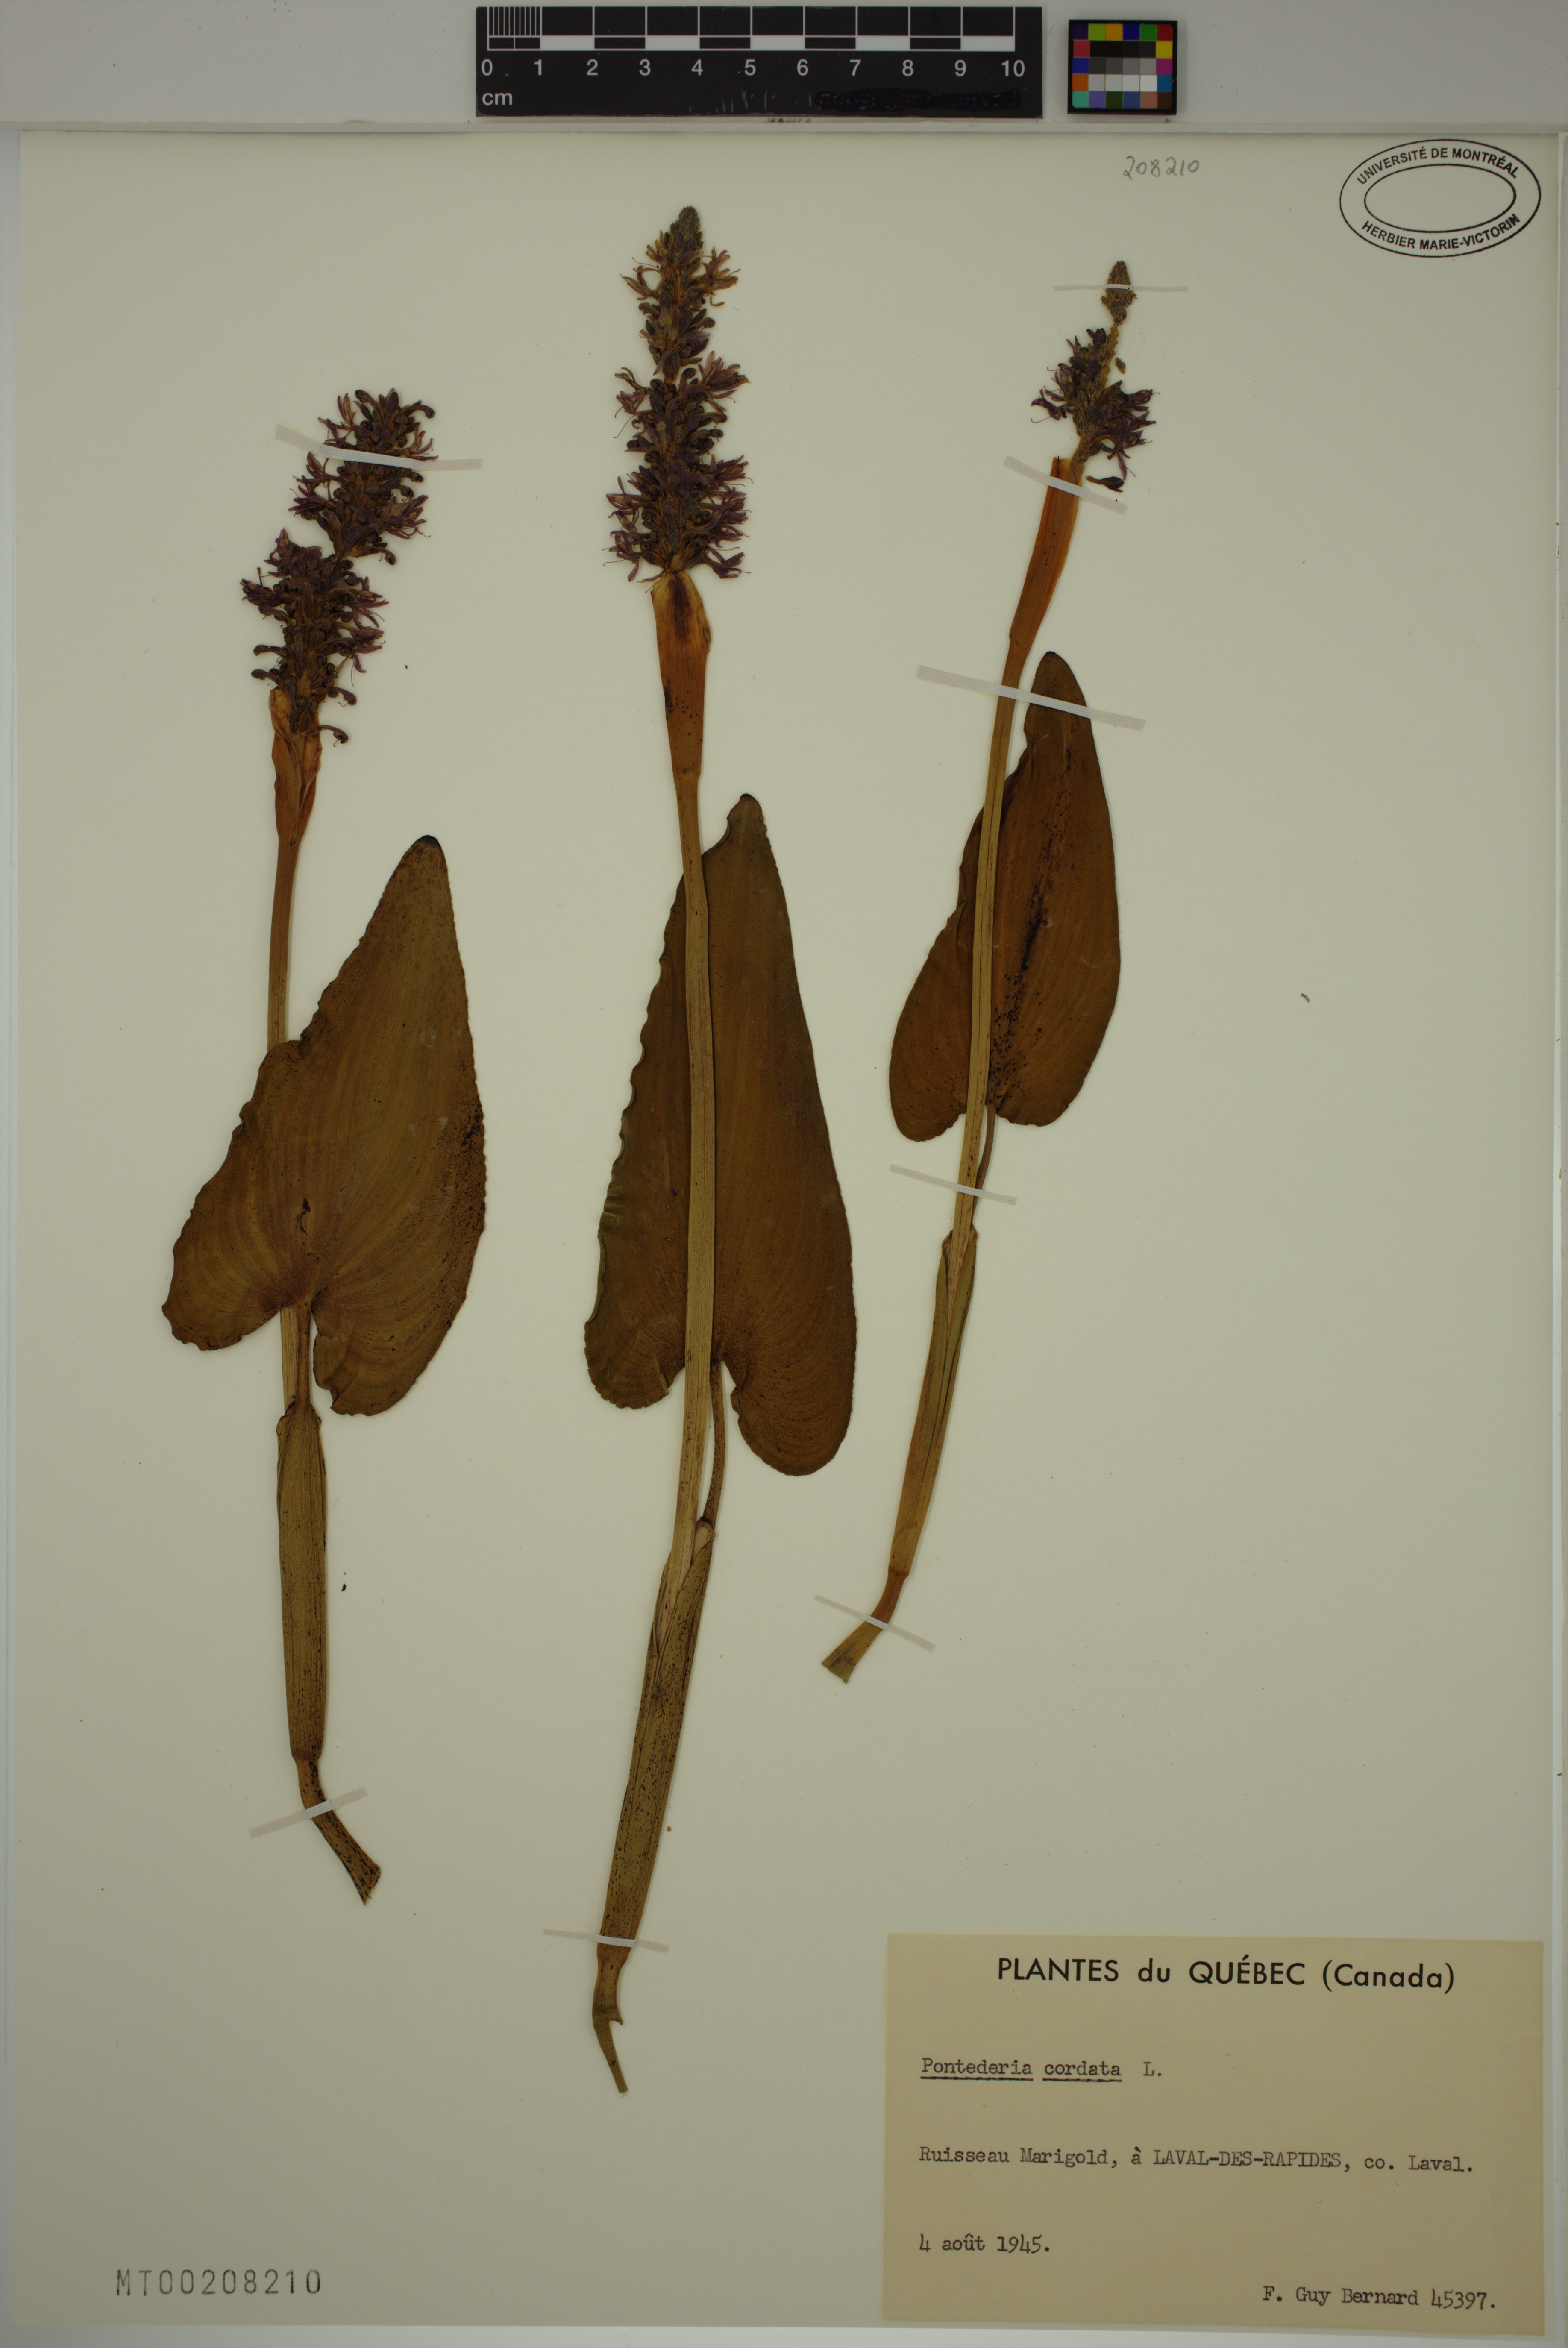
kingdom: Plantae
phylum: Tracheophyta
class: Liliopsida
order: Commelinales
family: Pontederiaceae
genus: Pontederia
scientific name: Pontederia cordata
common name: Pickerelweed
